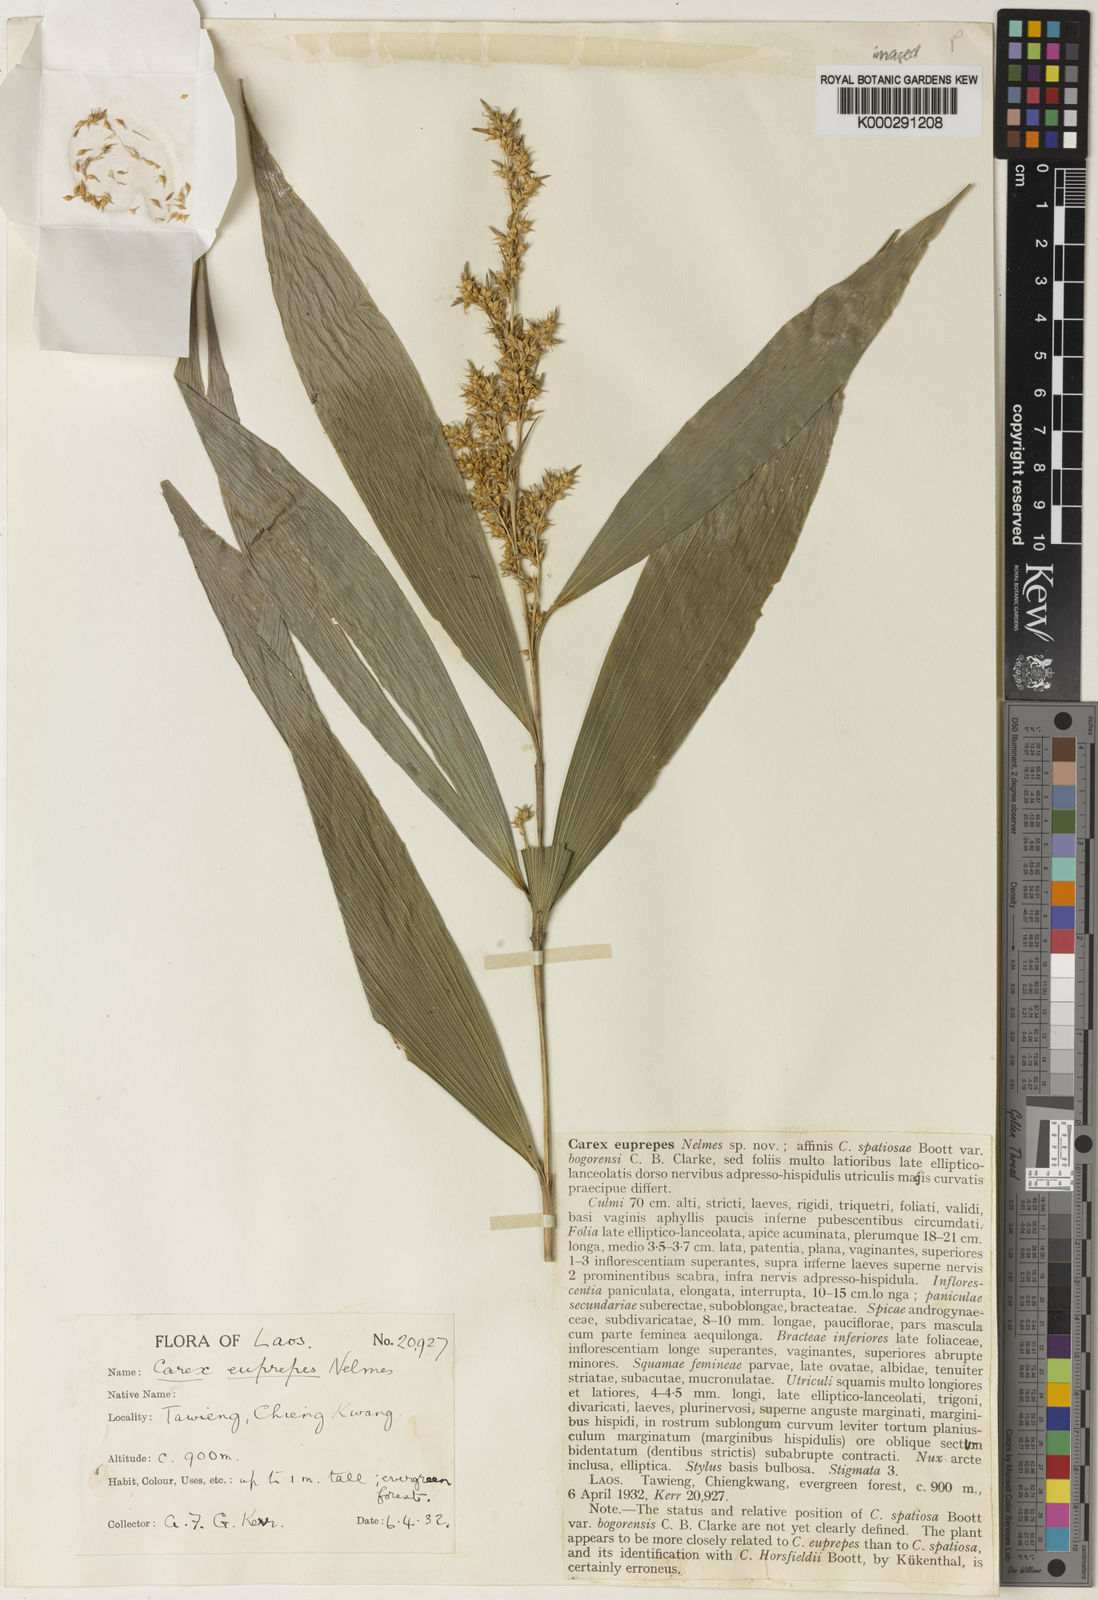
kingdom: Plantae
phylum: Tracheophyta
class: Liliopsida
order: Poales
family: Cyperaceae
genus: Carex
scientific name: Carex euprepes
